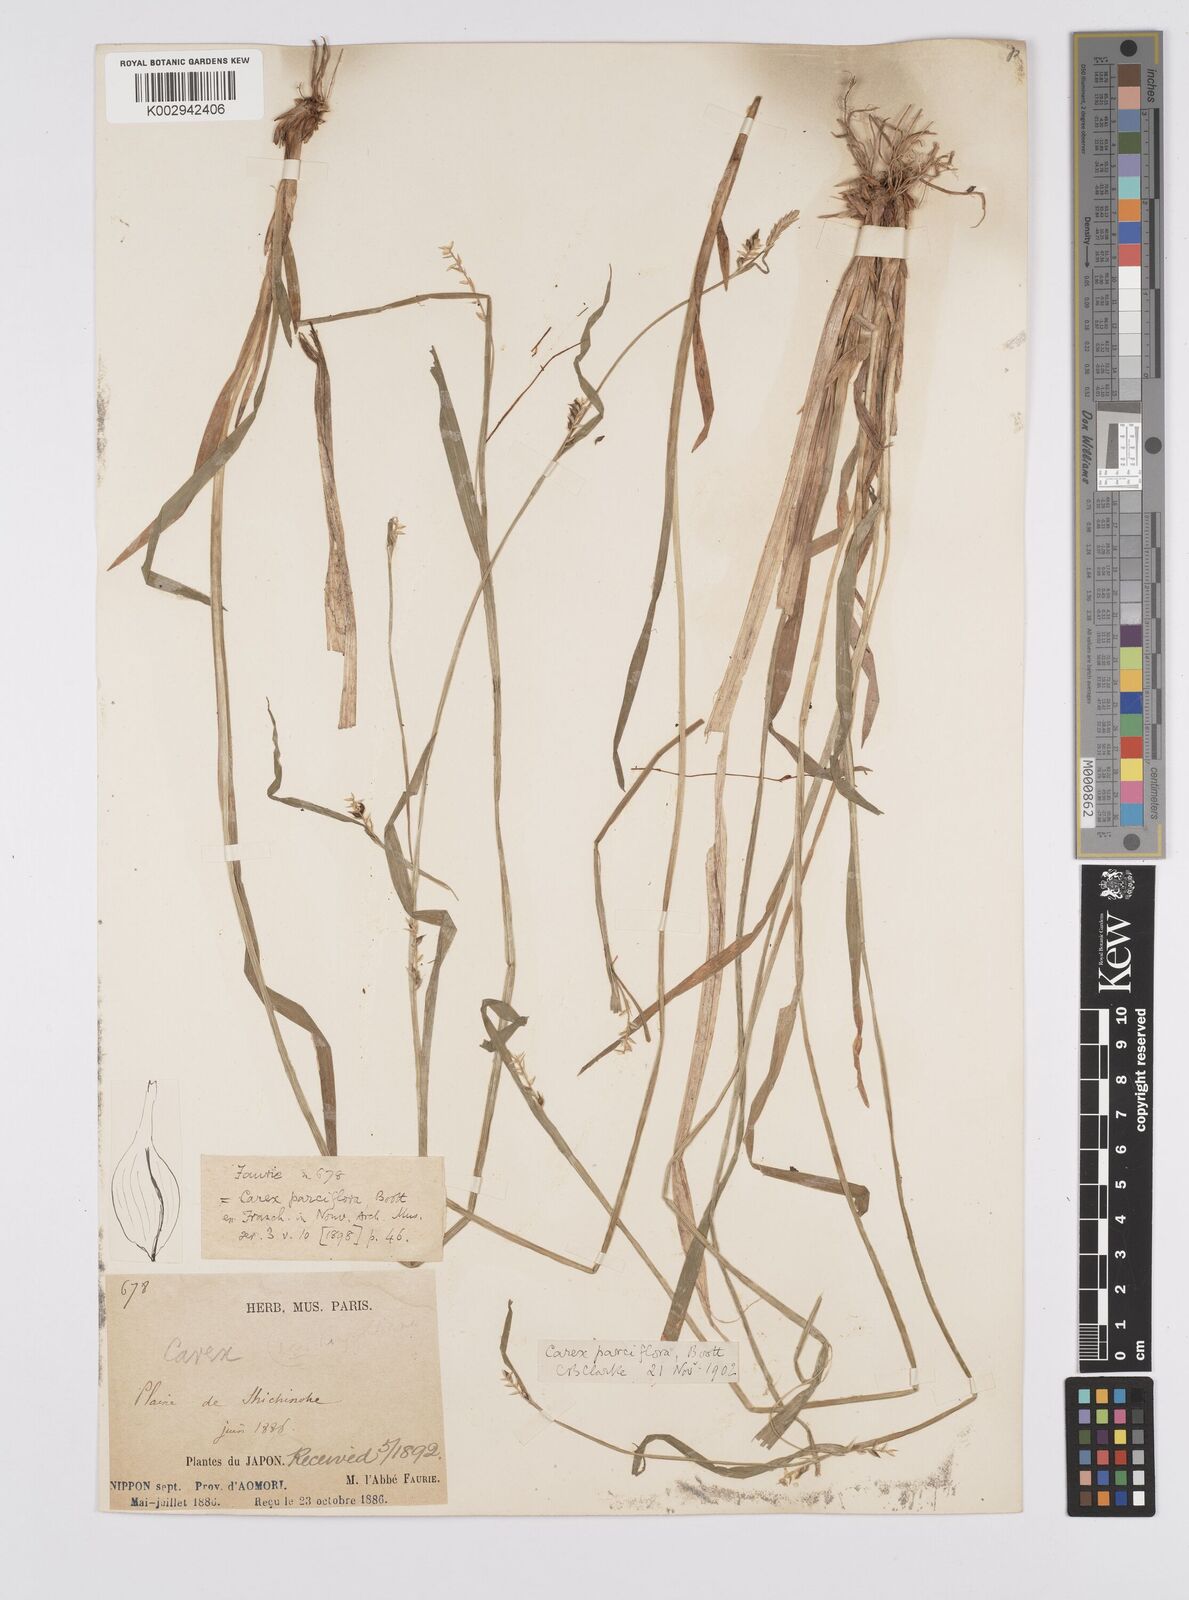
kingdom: Plantae
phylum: Tracheophyta
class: Liliopsida
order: Poales
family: Cyperaceae
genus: Carex
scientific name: Carex parciflora
